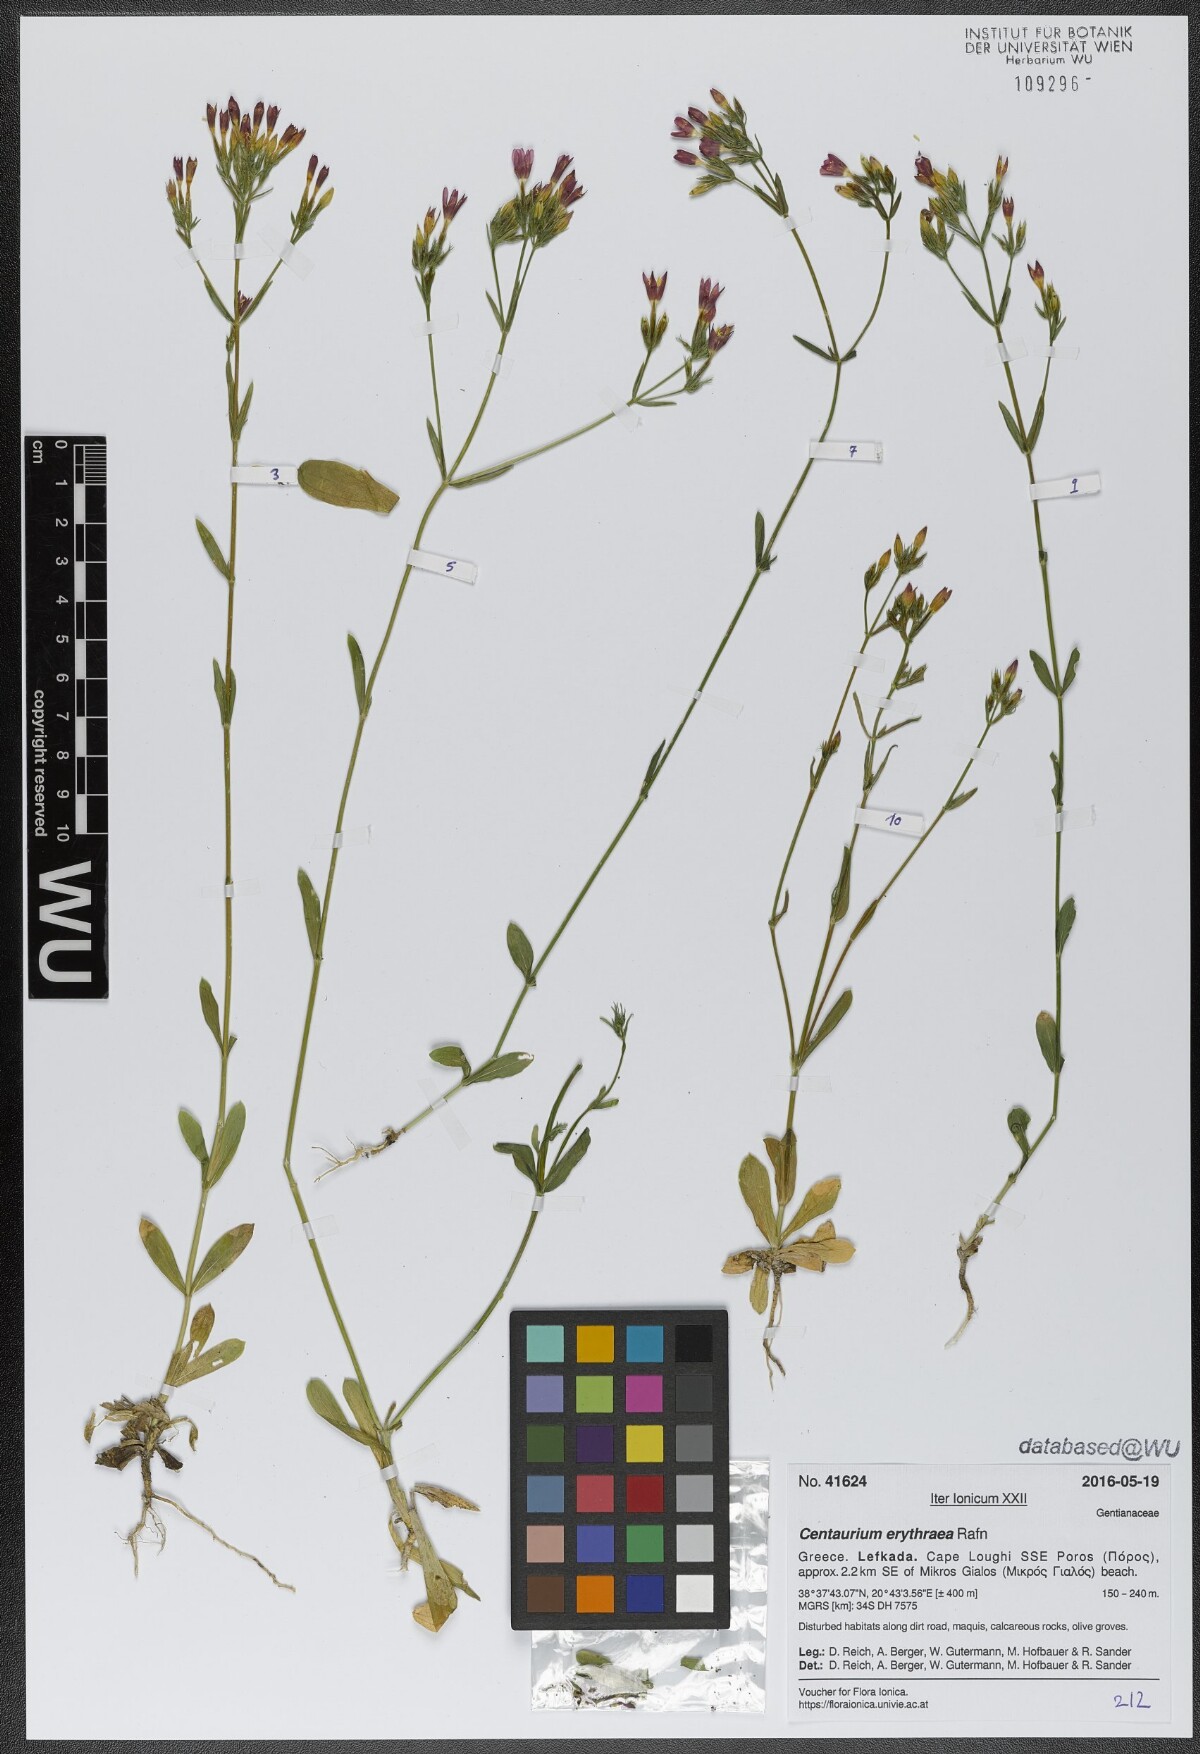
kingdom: Plantae
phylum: Tracheophyta
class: Magnoliopsida
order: Gentianales
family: Gentianaceae
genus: Centaurium
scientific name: Centaurium erythraea
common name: Common centaury
